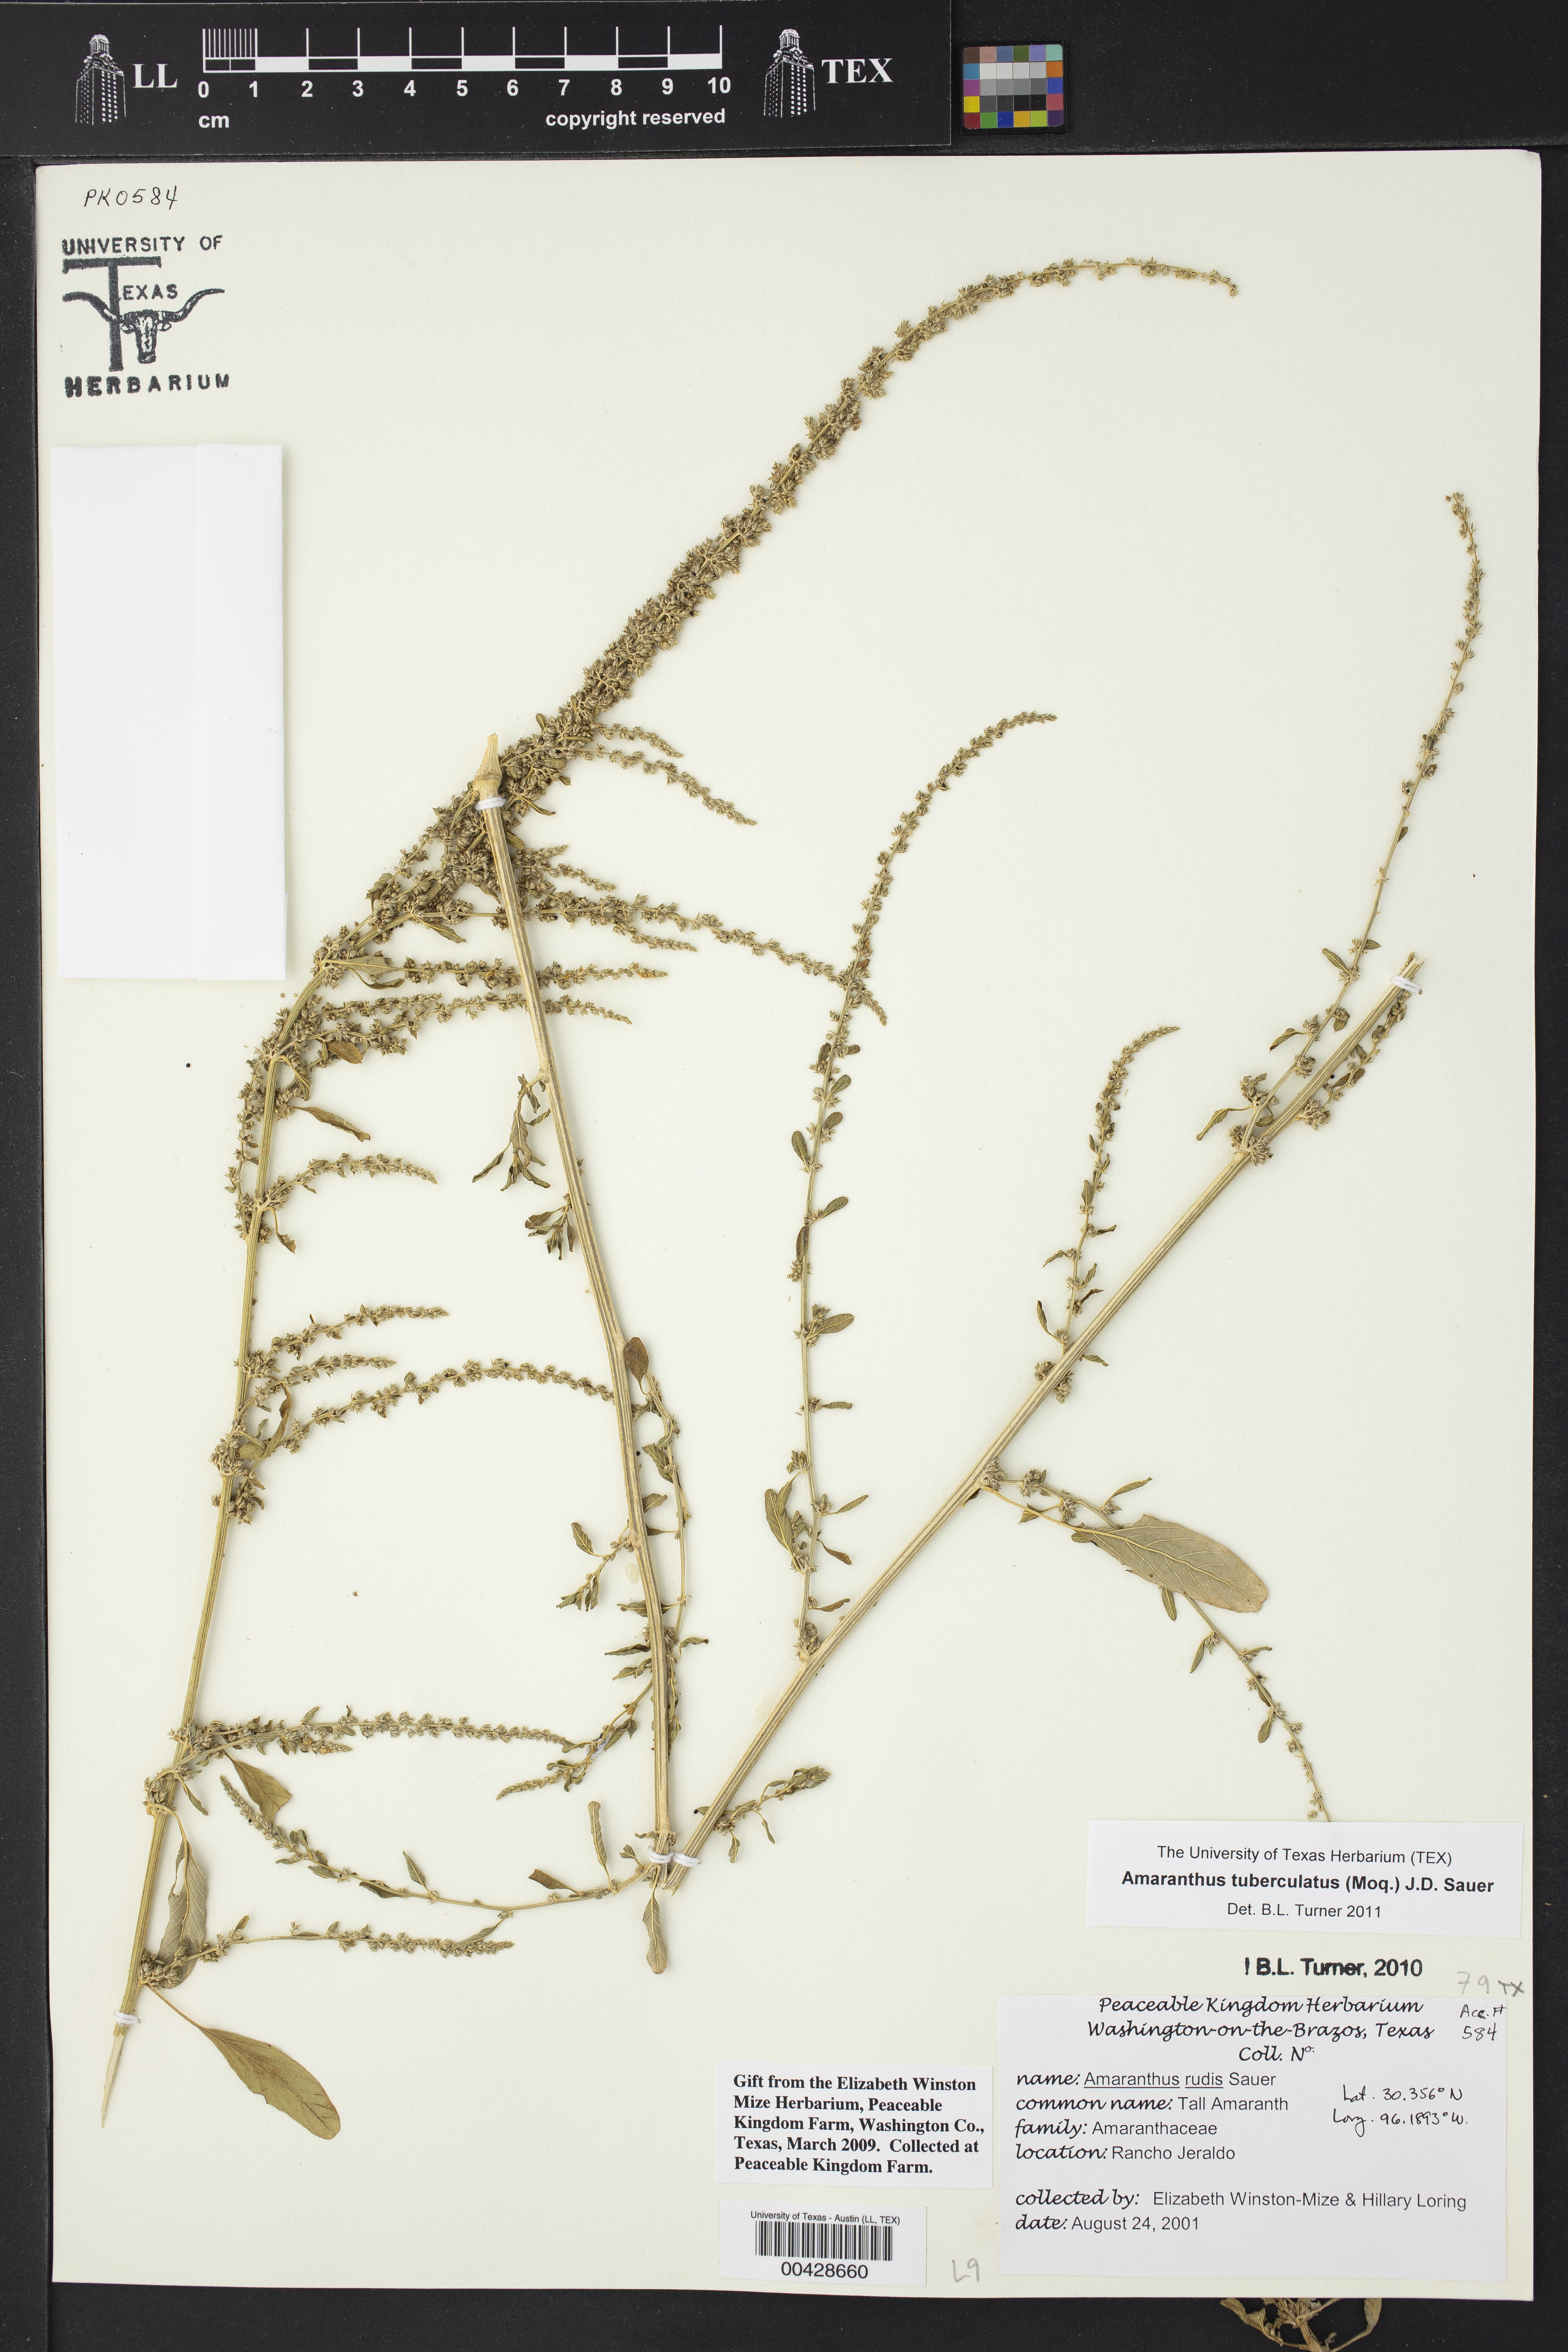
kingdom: Plantae
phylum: Tracheophyta
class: Magnoliopsida
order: Caryophyllales
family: Amaranthaceae
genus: Amaranthus
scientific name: Amaranthus tuberculatus
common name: Rough-fruit amaranth
